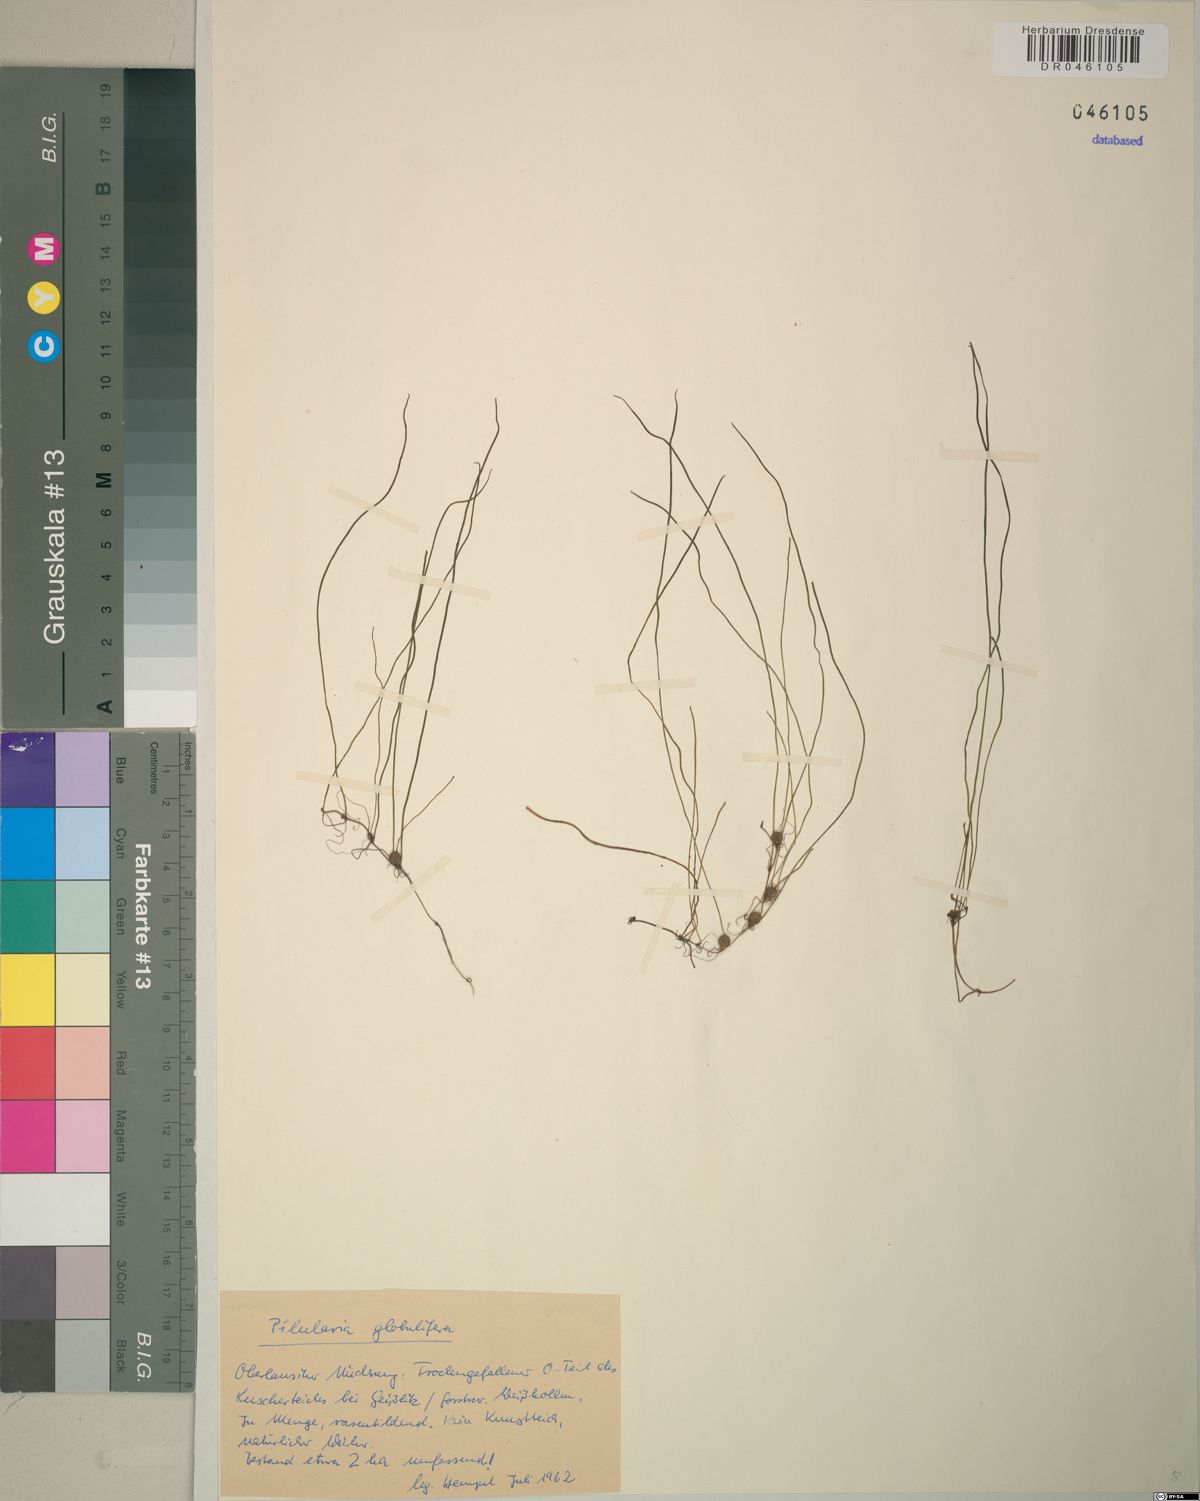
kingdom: Plantae
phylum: Tracheophyta
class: Polypodiopsida
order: Salviniales
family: Marsileaceae
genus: Pilularia
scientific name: Pilularia globulifera
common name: Pillwort
